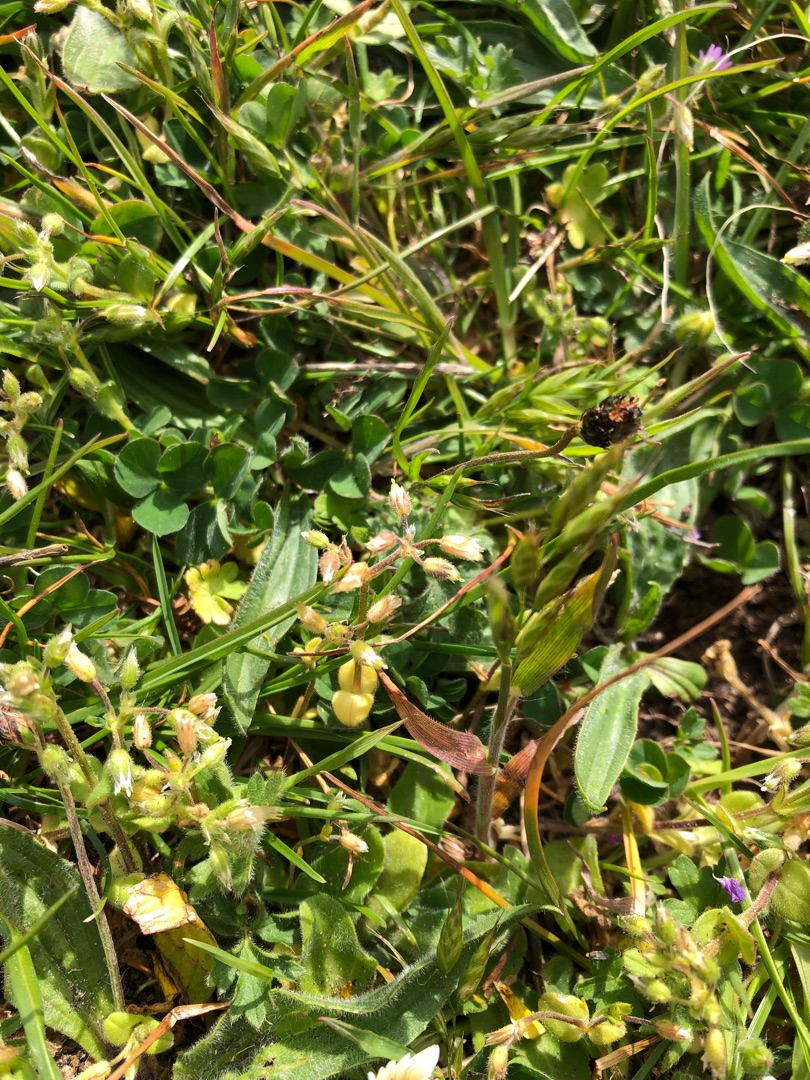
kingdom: Plantae
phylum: Tracheophyta
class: Magnoliopsida
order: Caryophyllales
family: Caryophyllaceae
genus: Cerastium
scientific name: Cerastium semidecandrum
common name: Femhannet hønsetarm
